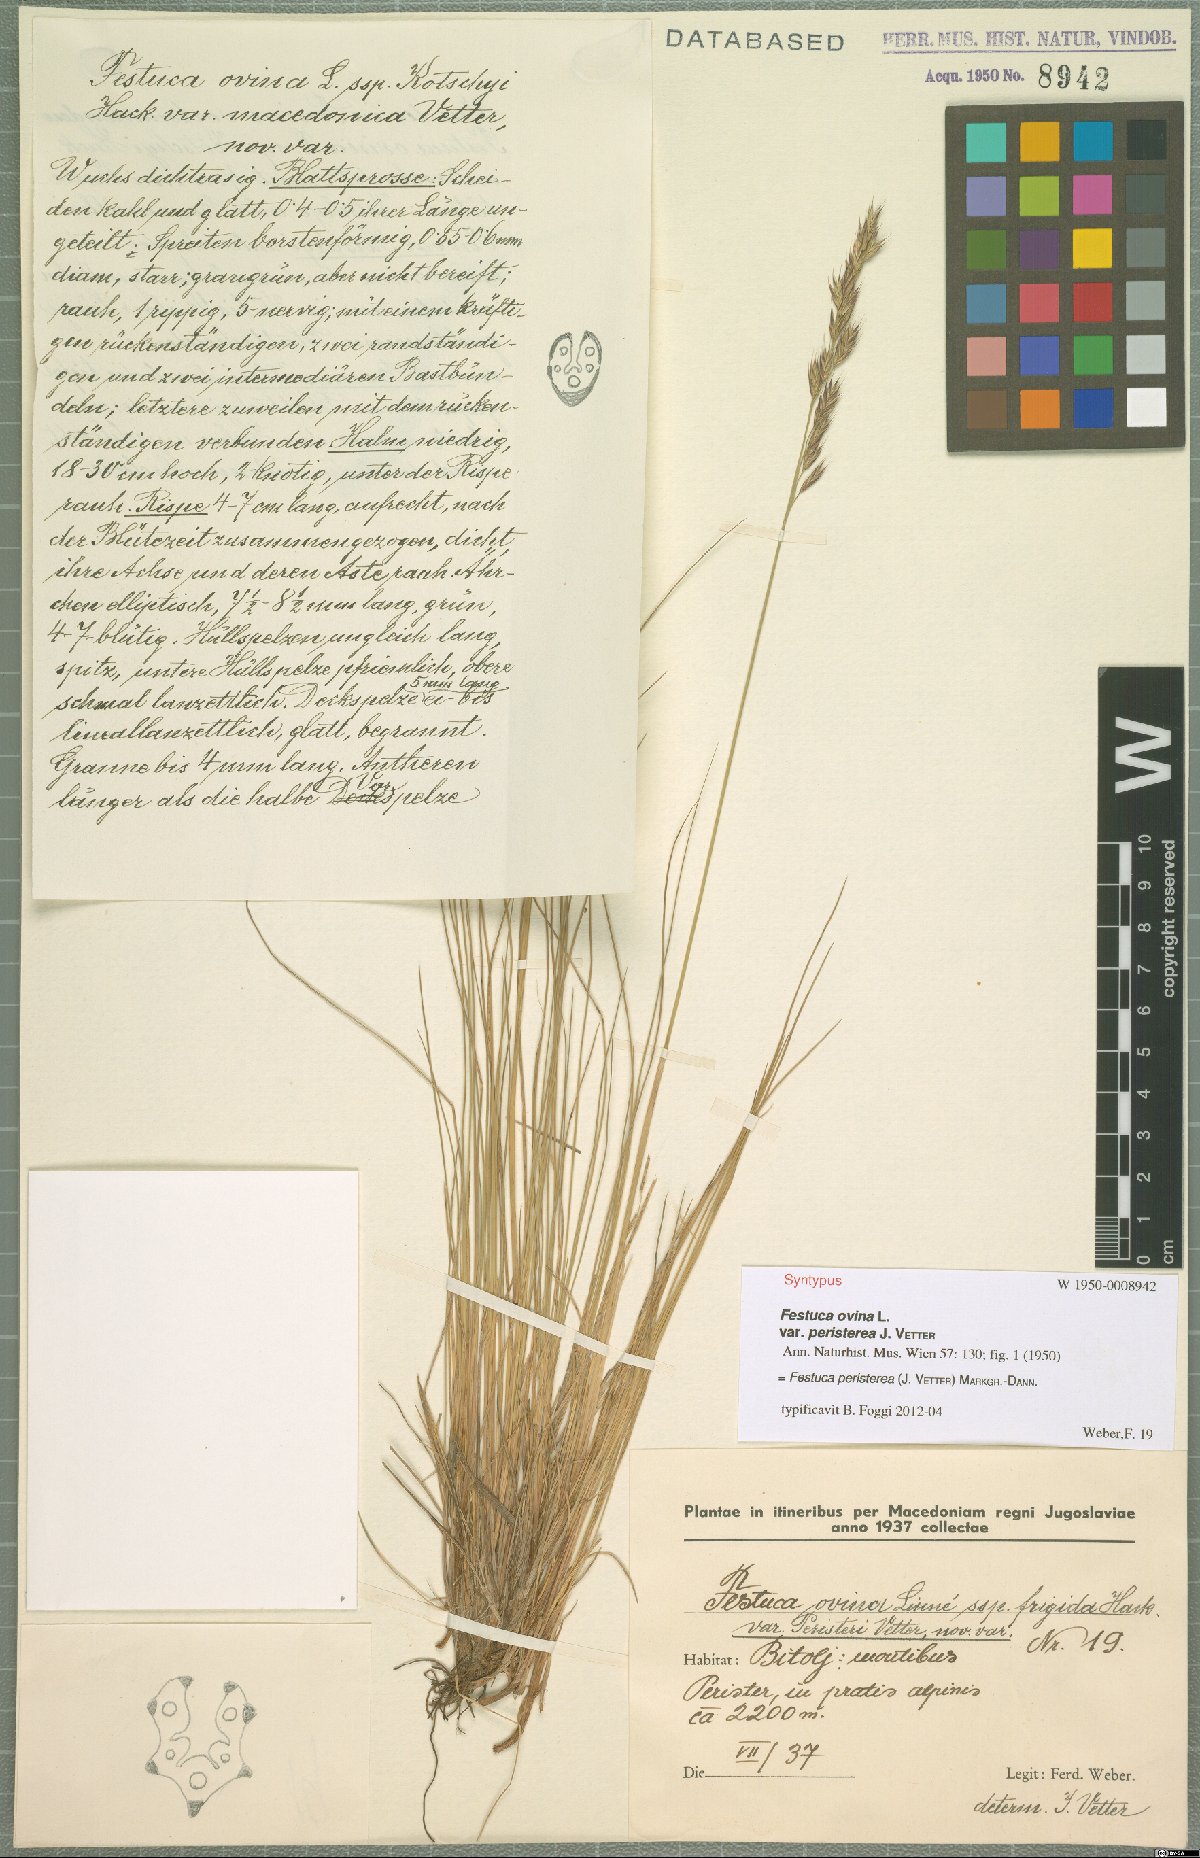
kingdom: Plantae
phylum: Tracheophyta
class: Liliopsida
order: Poales
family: Poaceae
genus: Festuca
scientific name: Festuca peristerea
